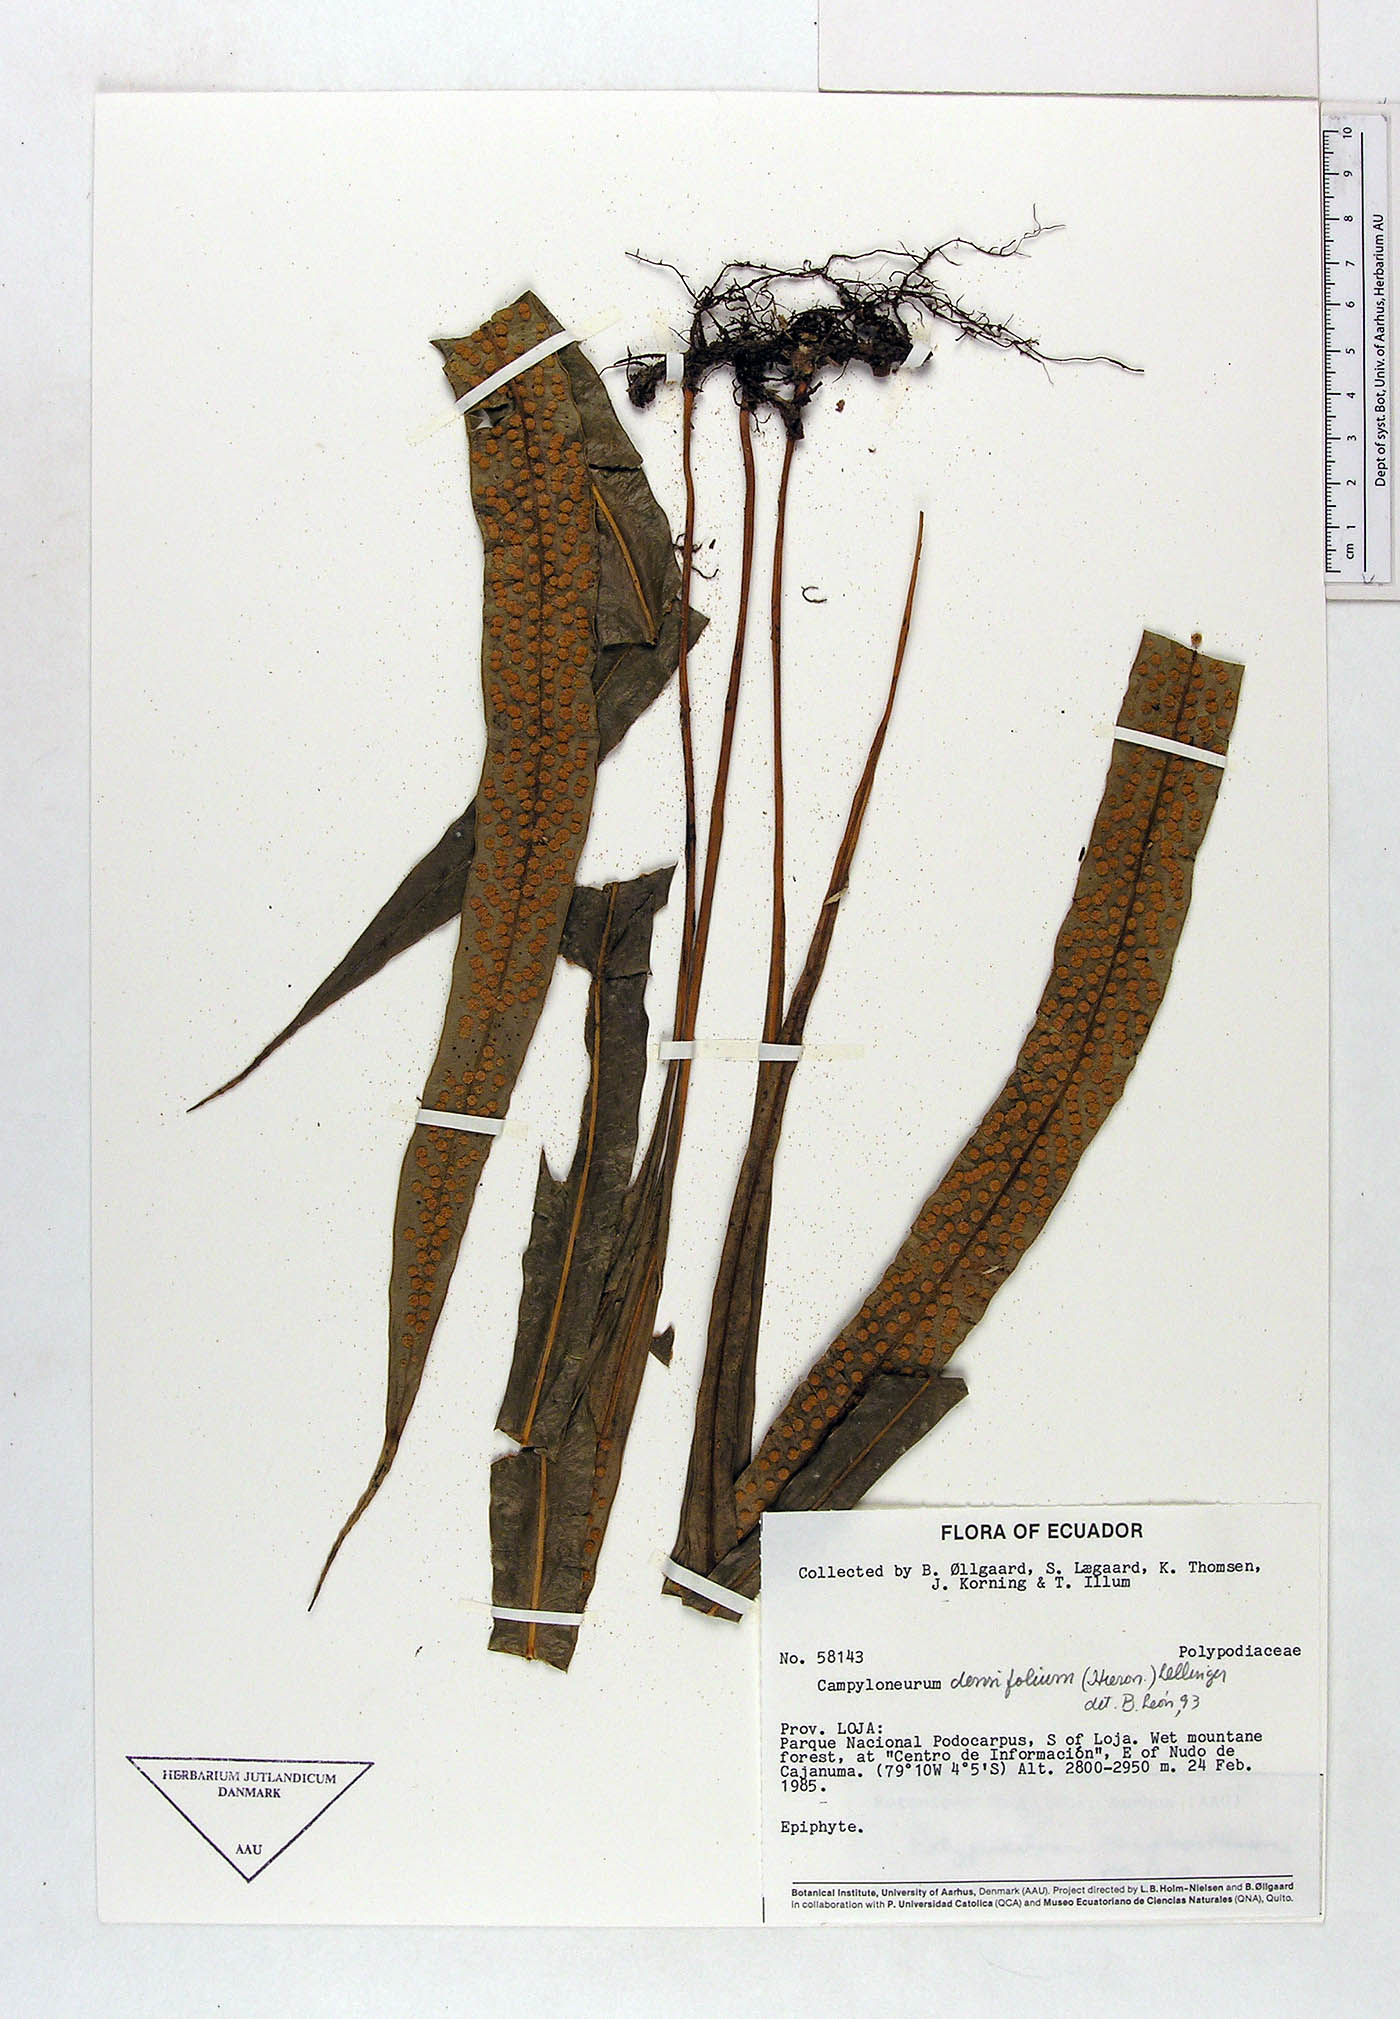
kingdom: Plantae
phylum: Tracheophyta
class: Polypodiopsida
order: Polypodiales
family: Polypodiaceae
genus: Campyloneurum
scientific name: Campyloneurum densifolium
